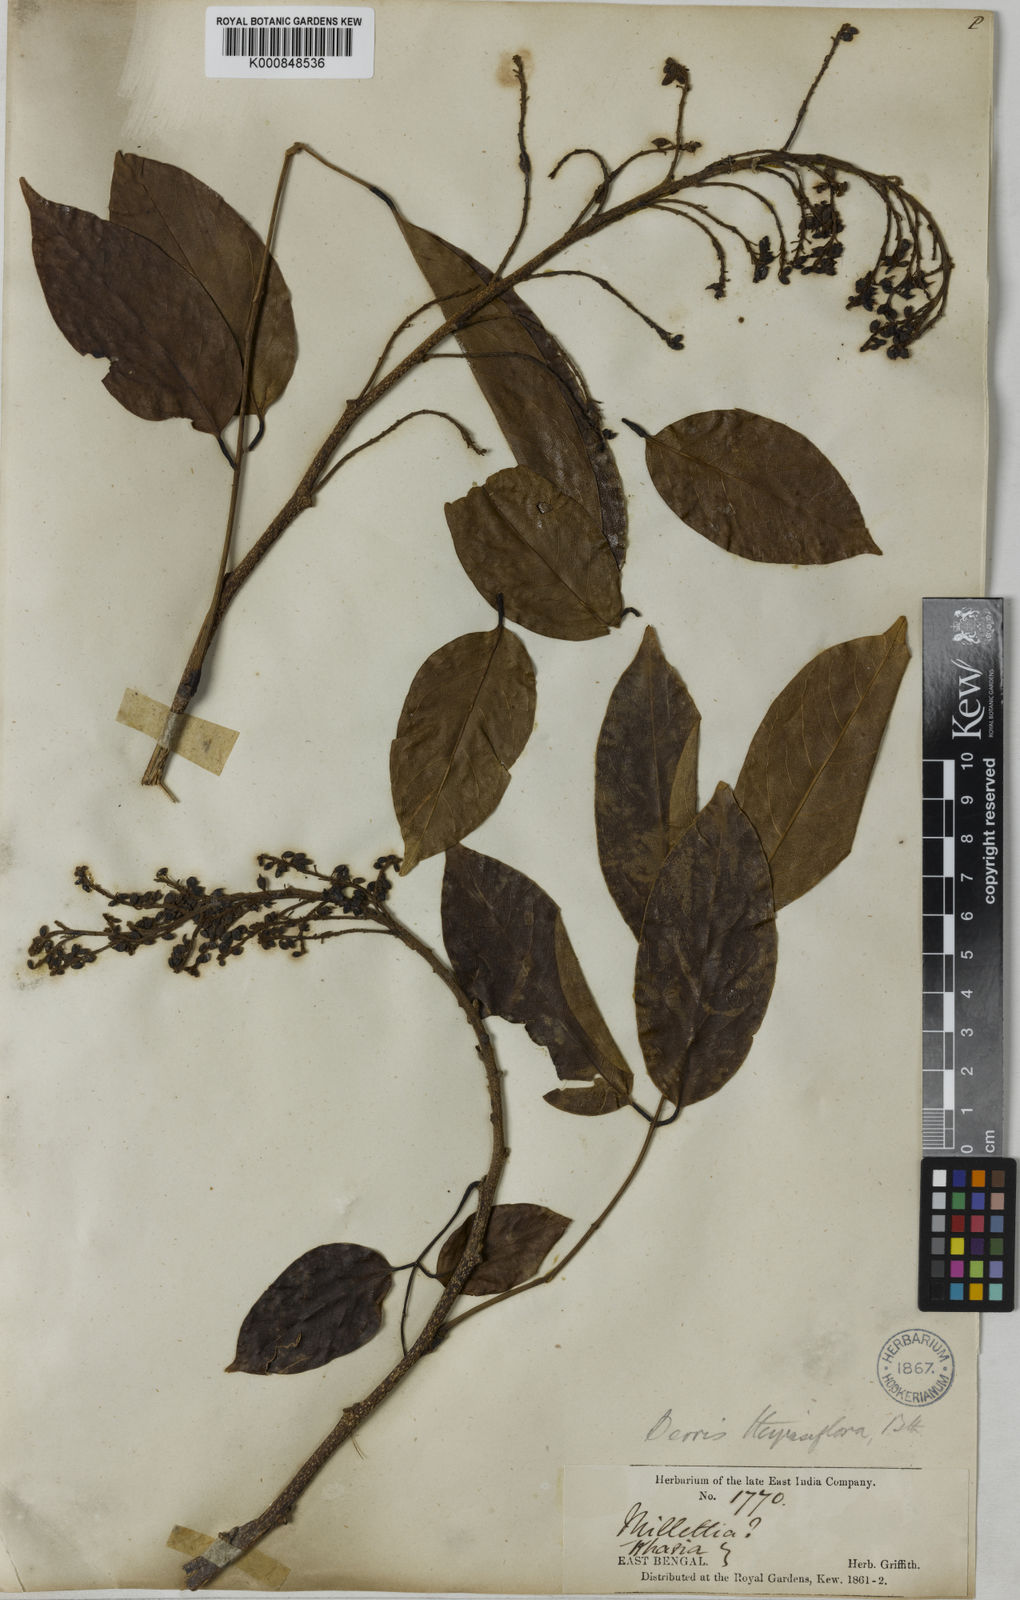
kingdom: Plantae
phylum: Tracheophyta
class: Magnoliopsida
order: Fabales
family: Fabaceae
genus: Aganope
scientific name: Aganope thyrsiflora
